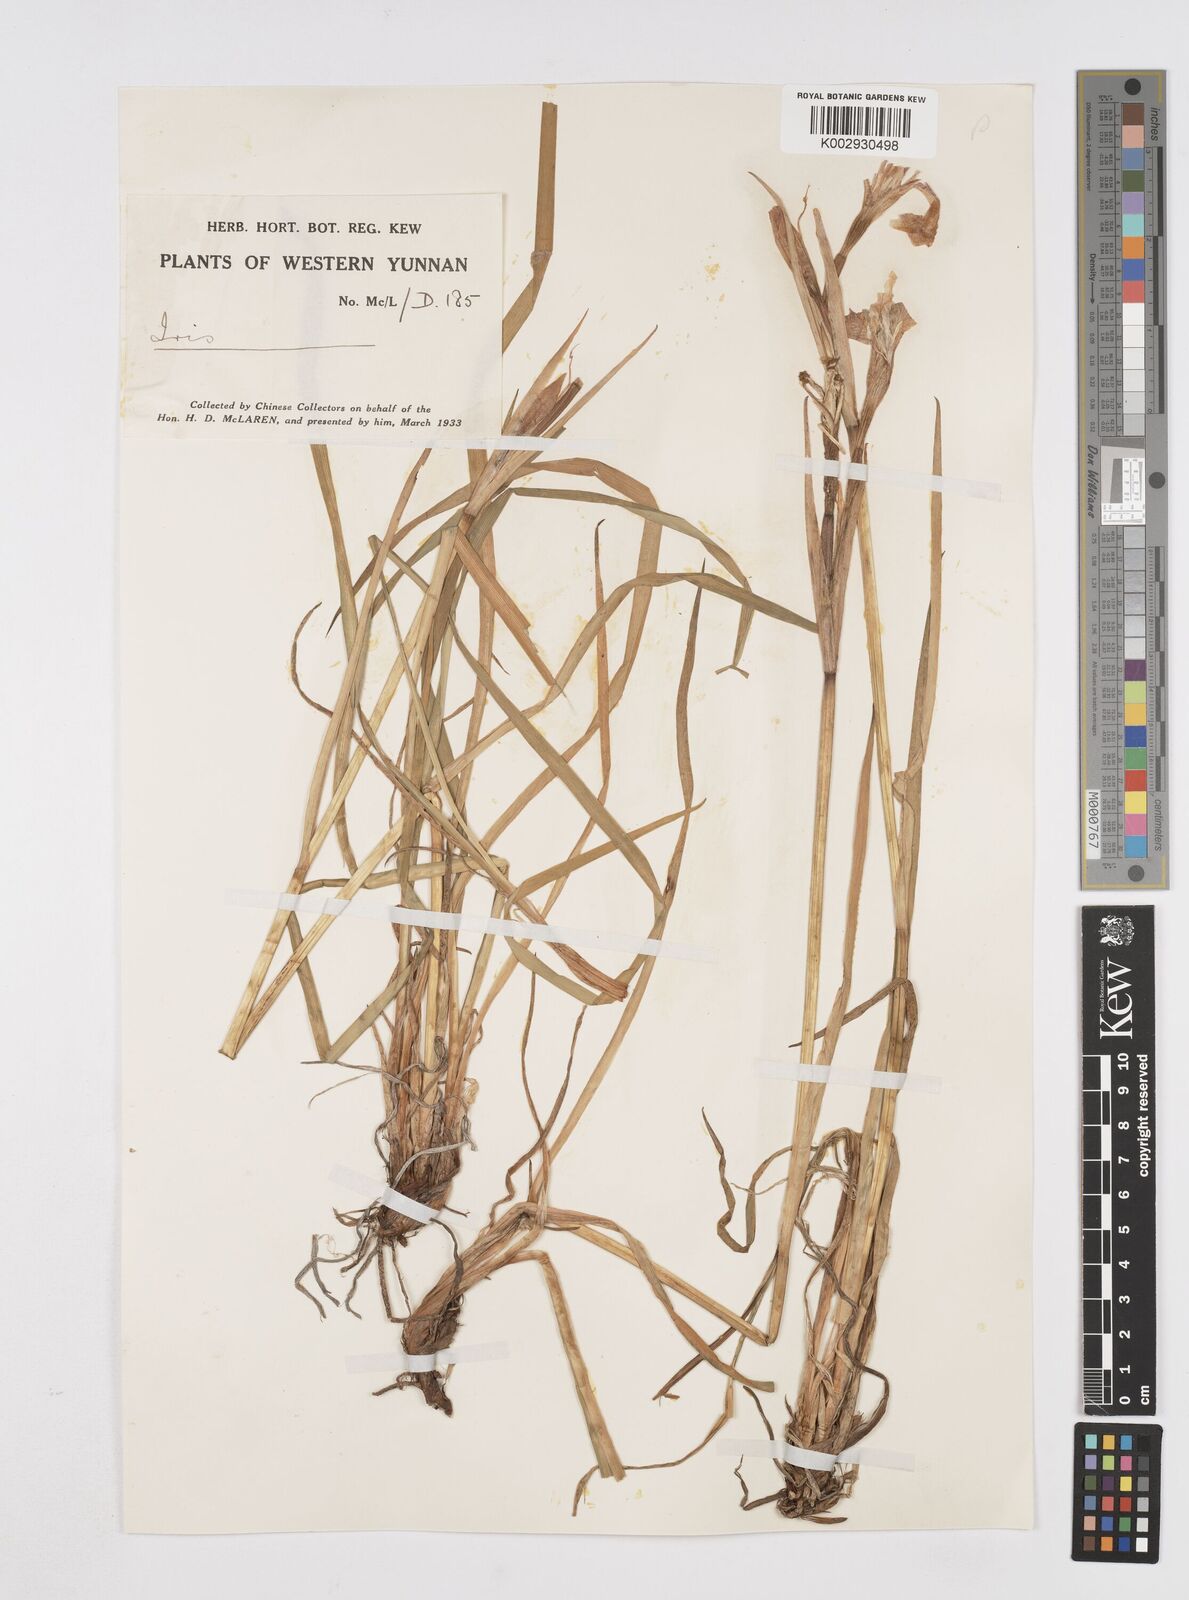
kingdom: Plantae
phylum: Tracheophyta
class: Liliopsida
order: Asparagales
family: Iridaceae
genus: Iris
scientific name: Iris wilsonii
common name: Yellow-flower iris
